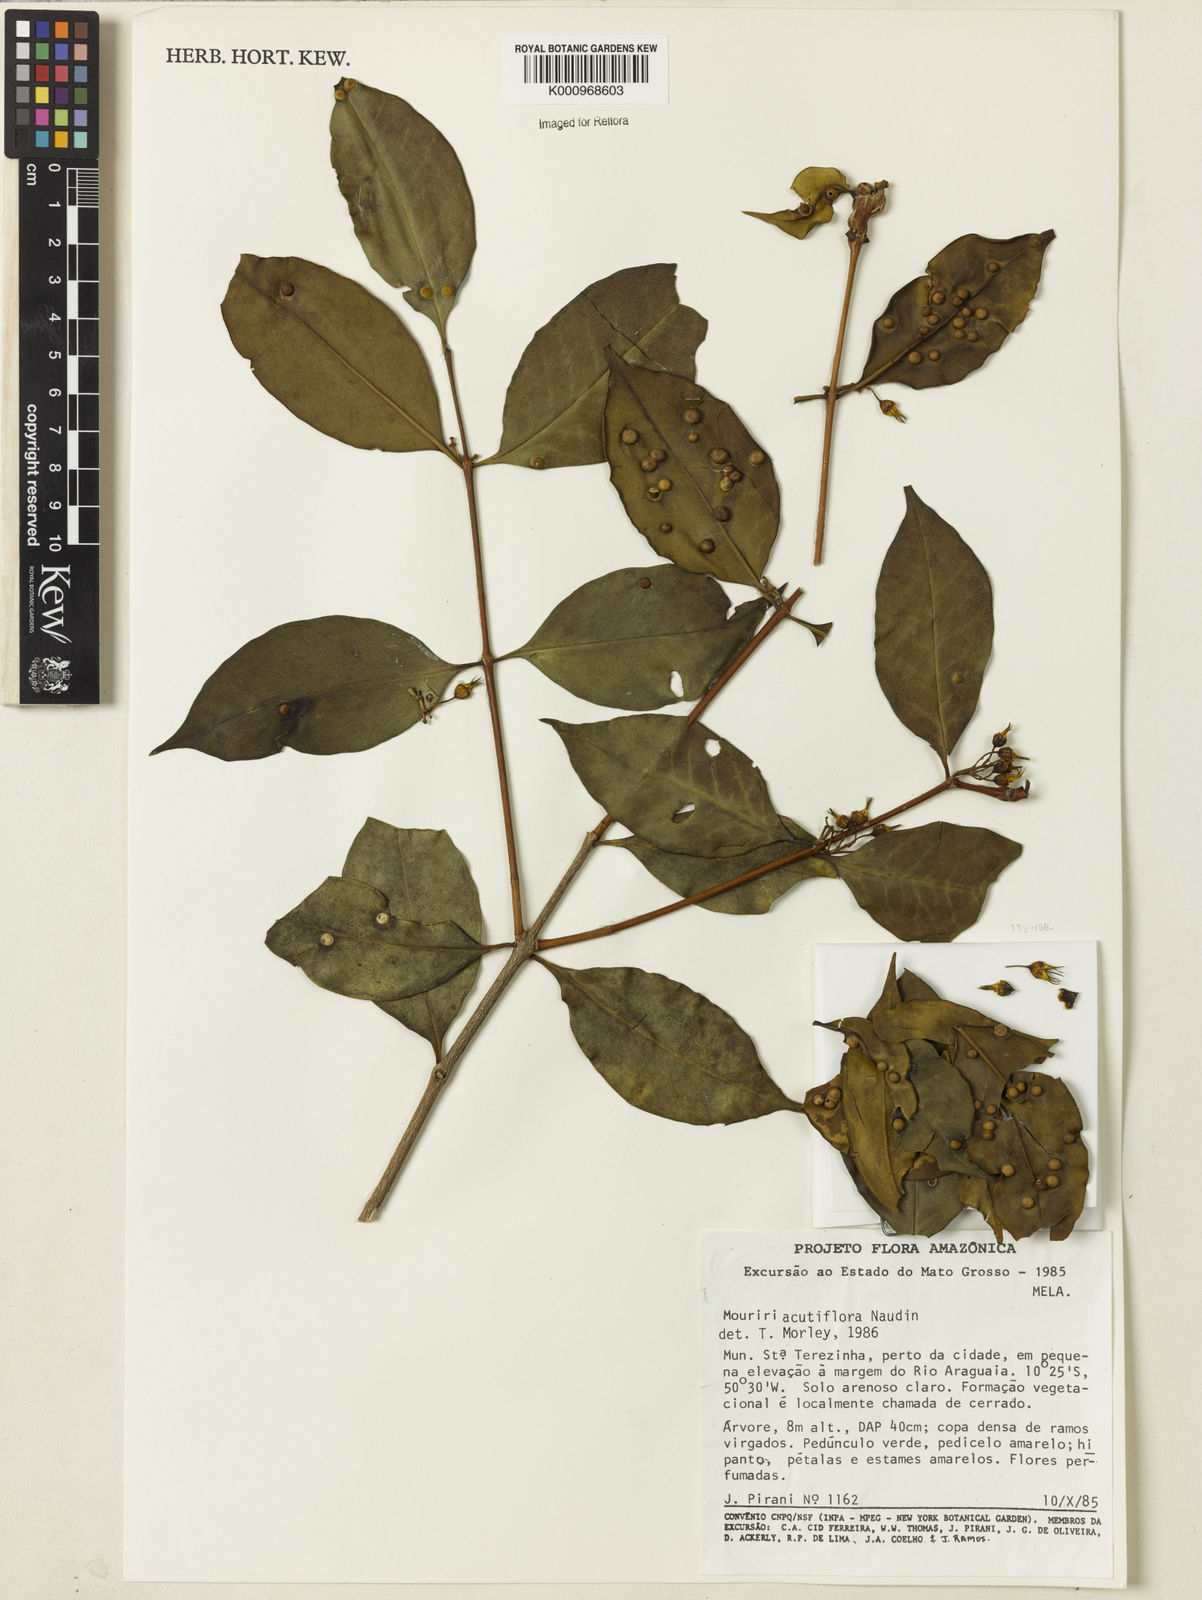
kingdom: Plantae
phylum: Tracheophyta
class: Magnoliopsida
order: Myrtales
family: Melastomataceae
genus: Mouriri
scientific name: Mouriri acutiflora
